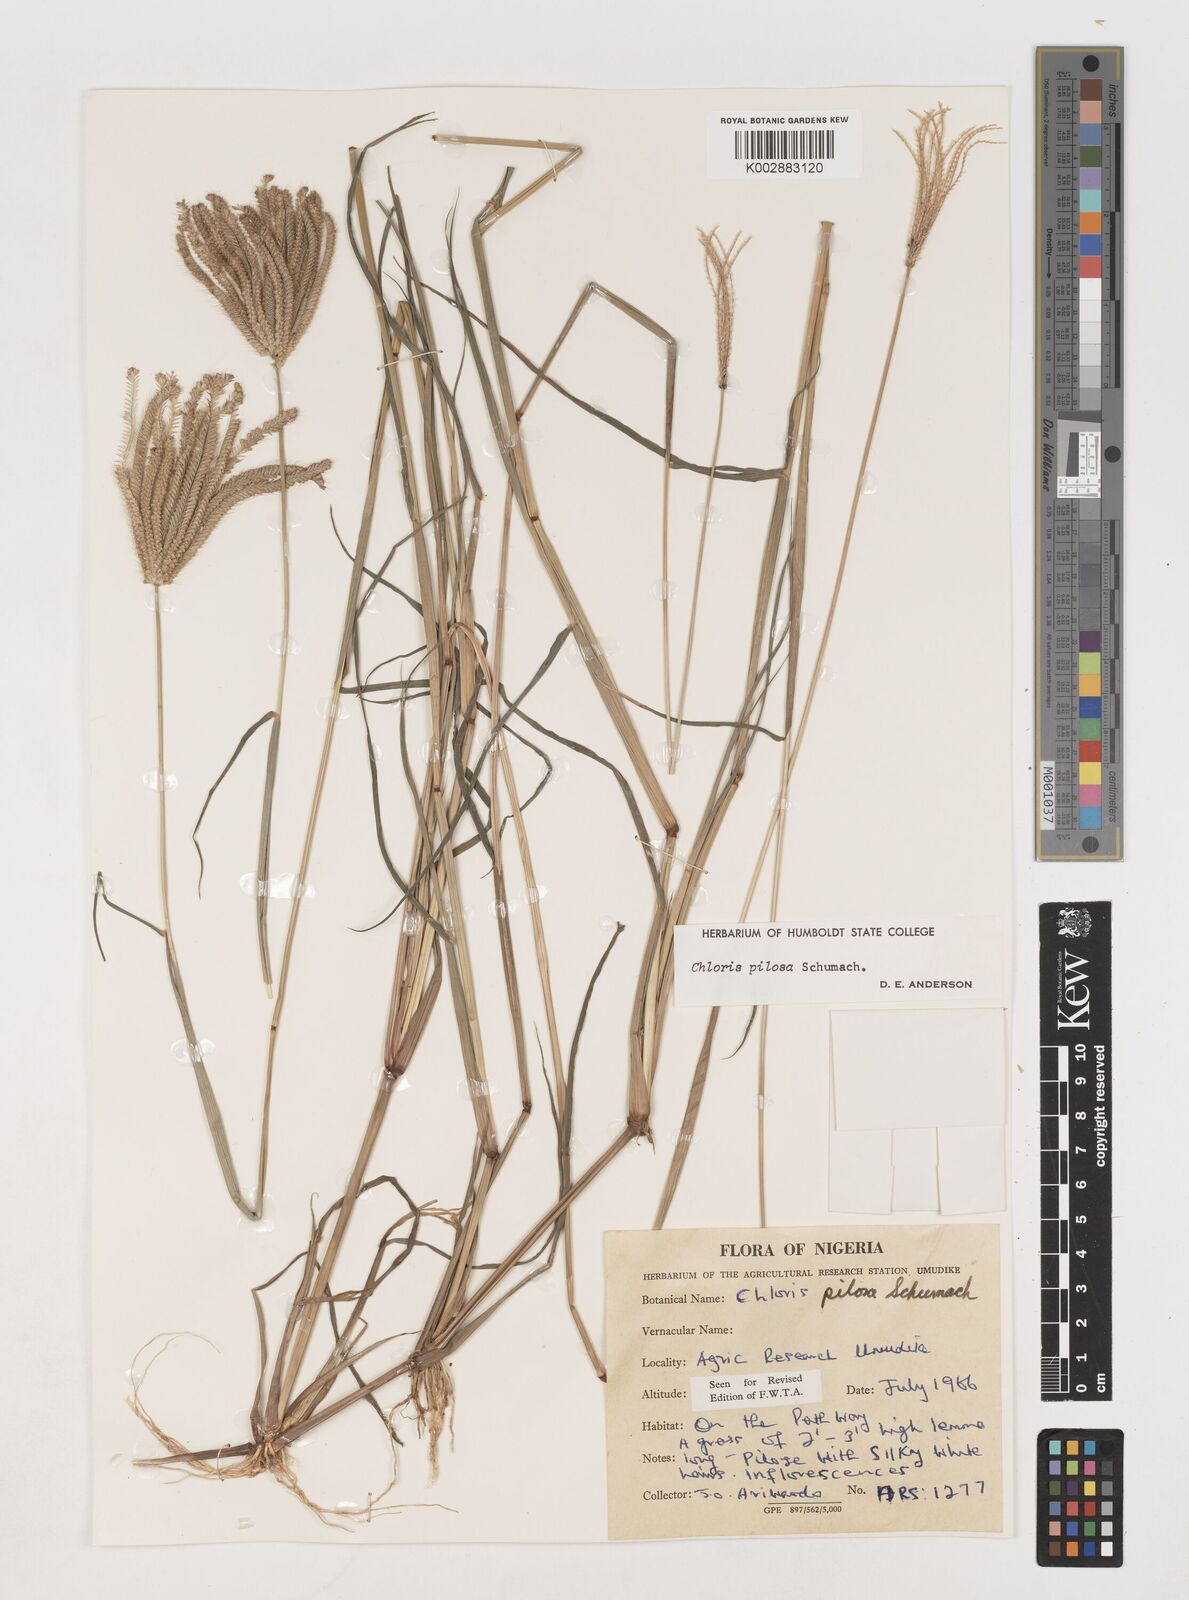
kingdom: Plantae
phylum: Tracheophyta
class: Liliopsida
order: Poales
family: Poaceae
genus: Chloris
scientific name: Chloris pilosa
